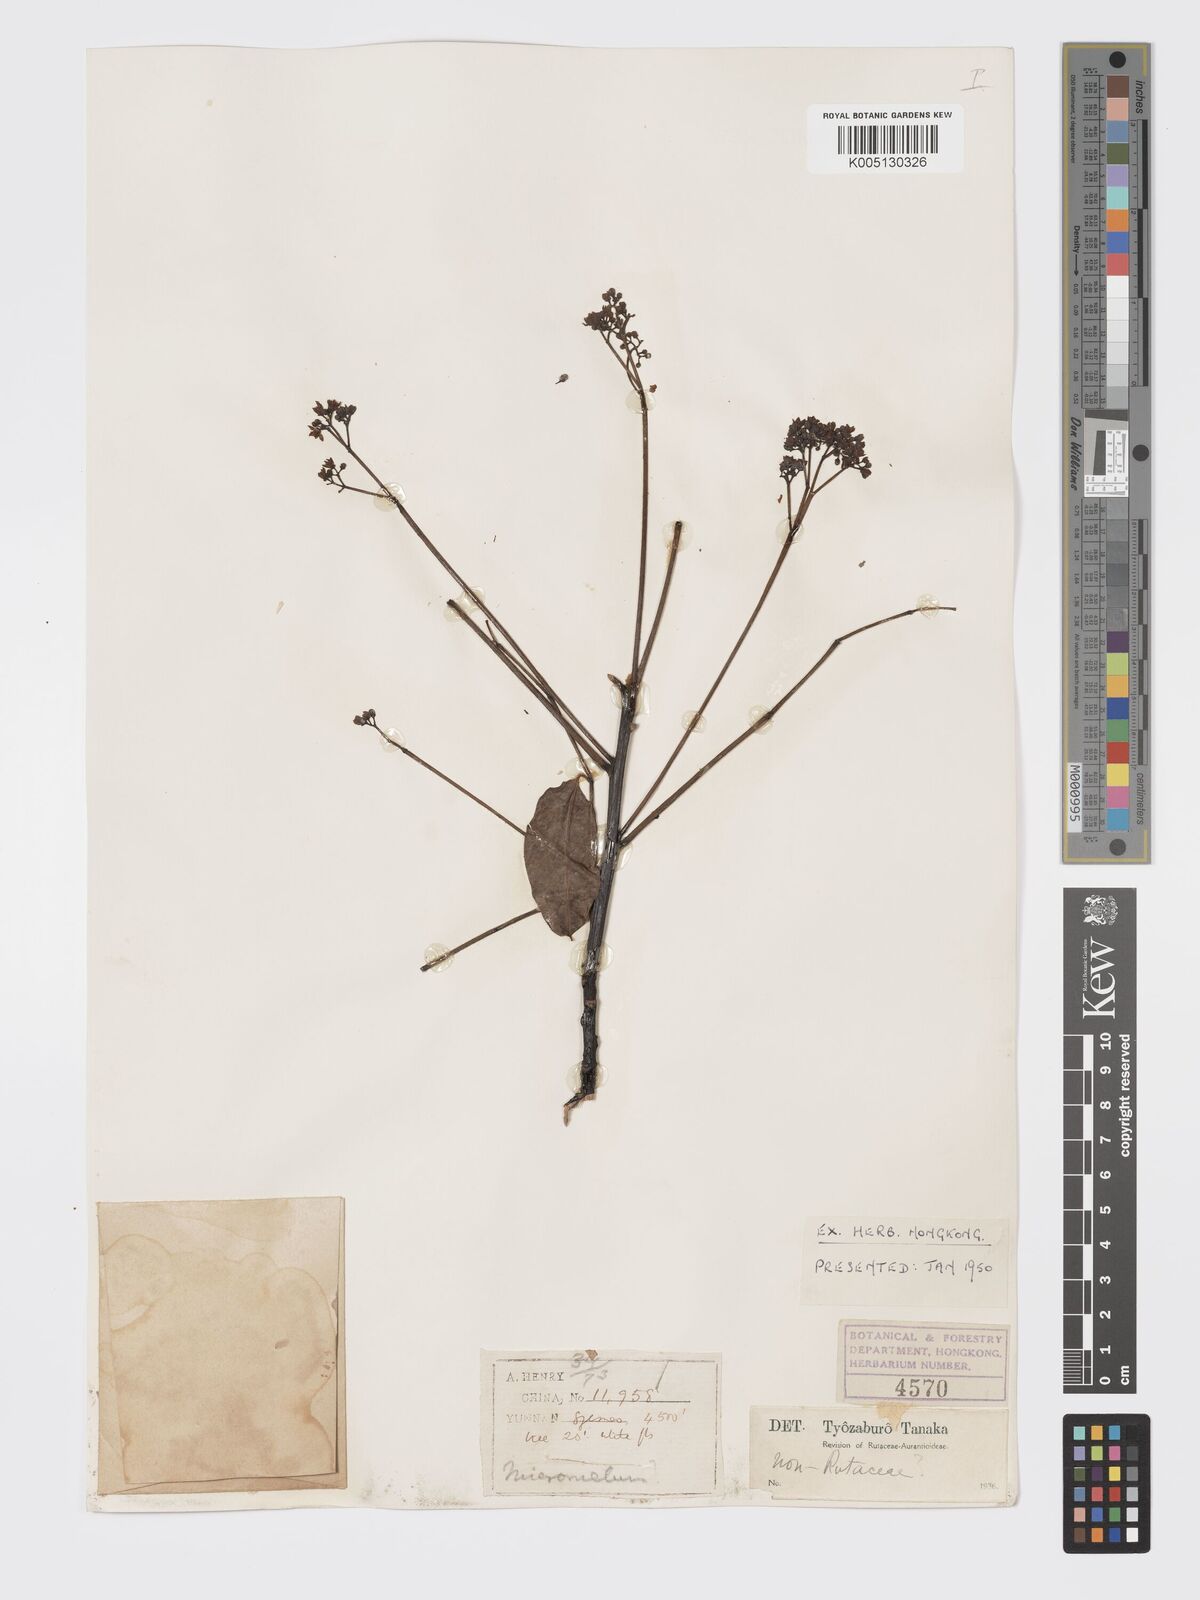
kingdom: Plantae
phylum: Tracheophyta
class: Magnoliopsida
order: Sapindales
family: Meliaceae
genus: Heynea
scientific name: Heynea trijuga
